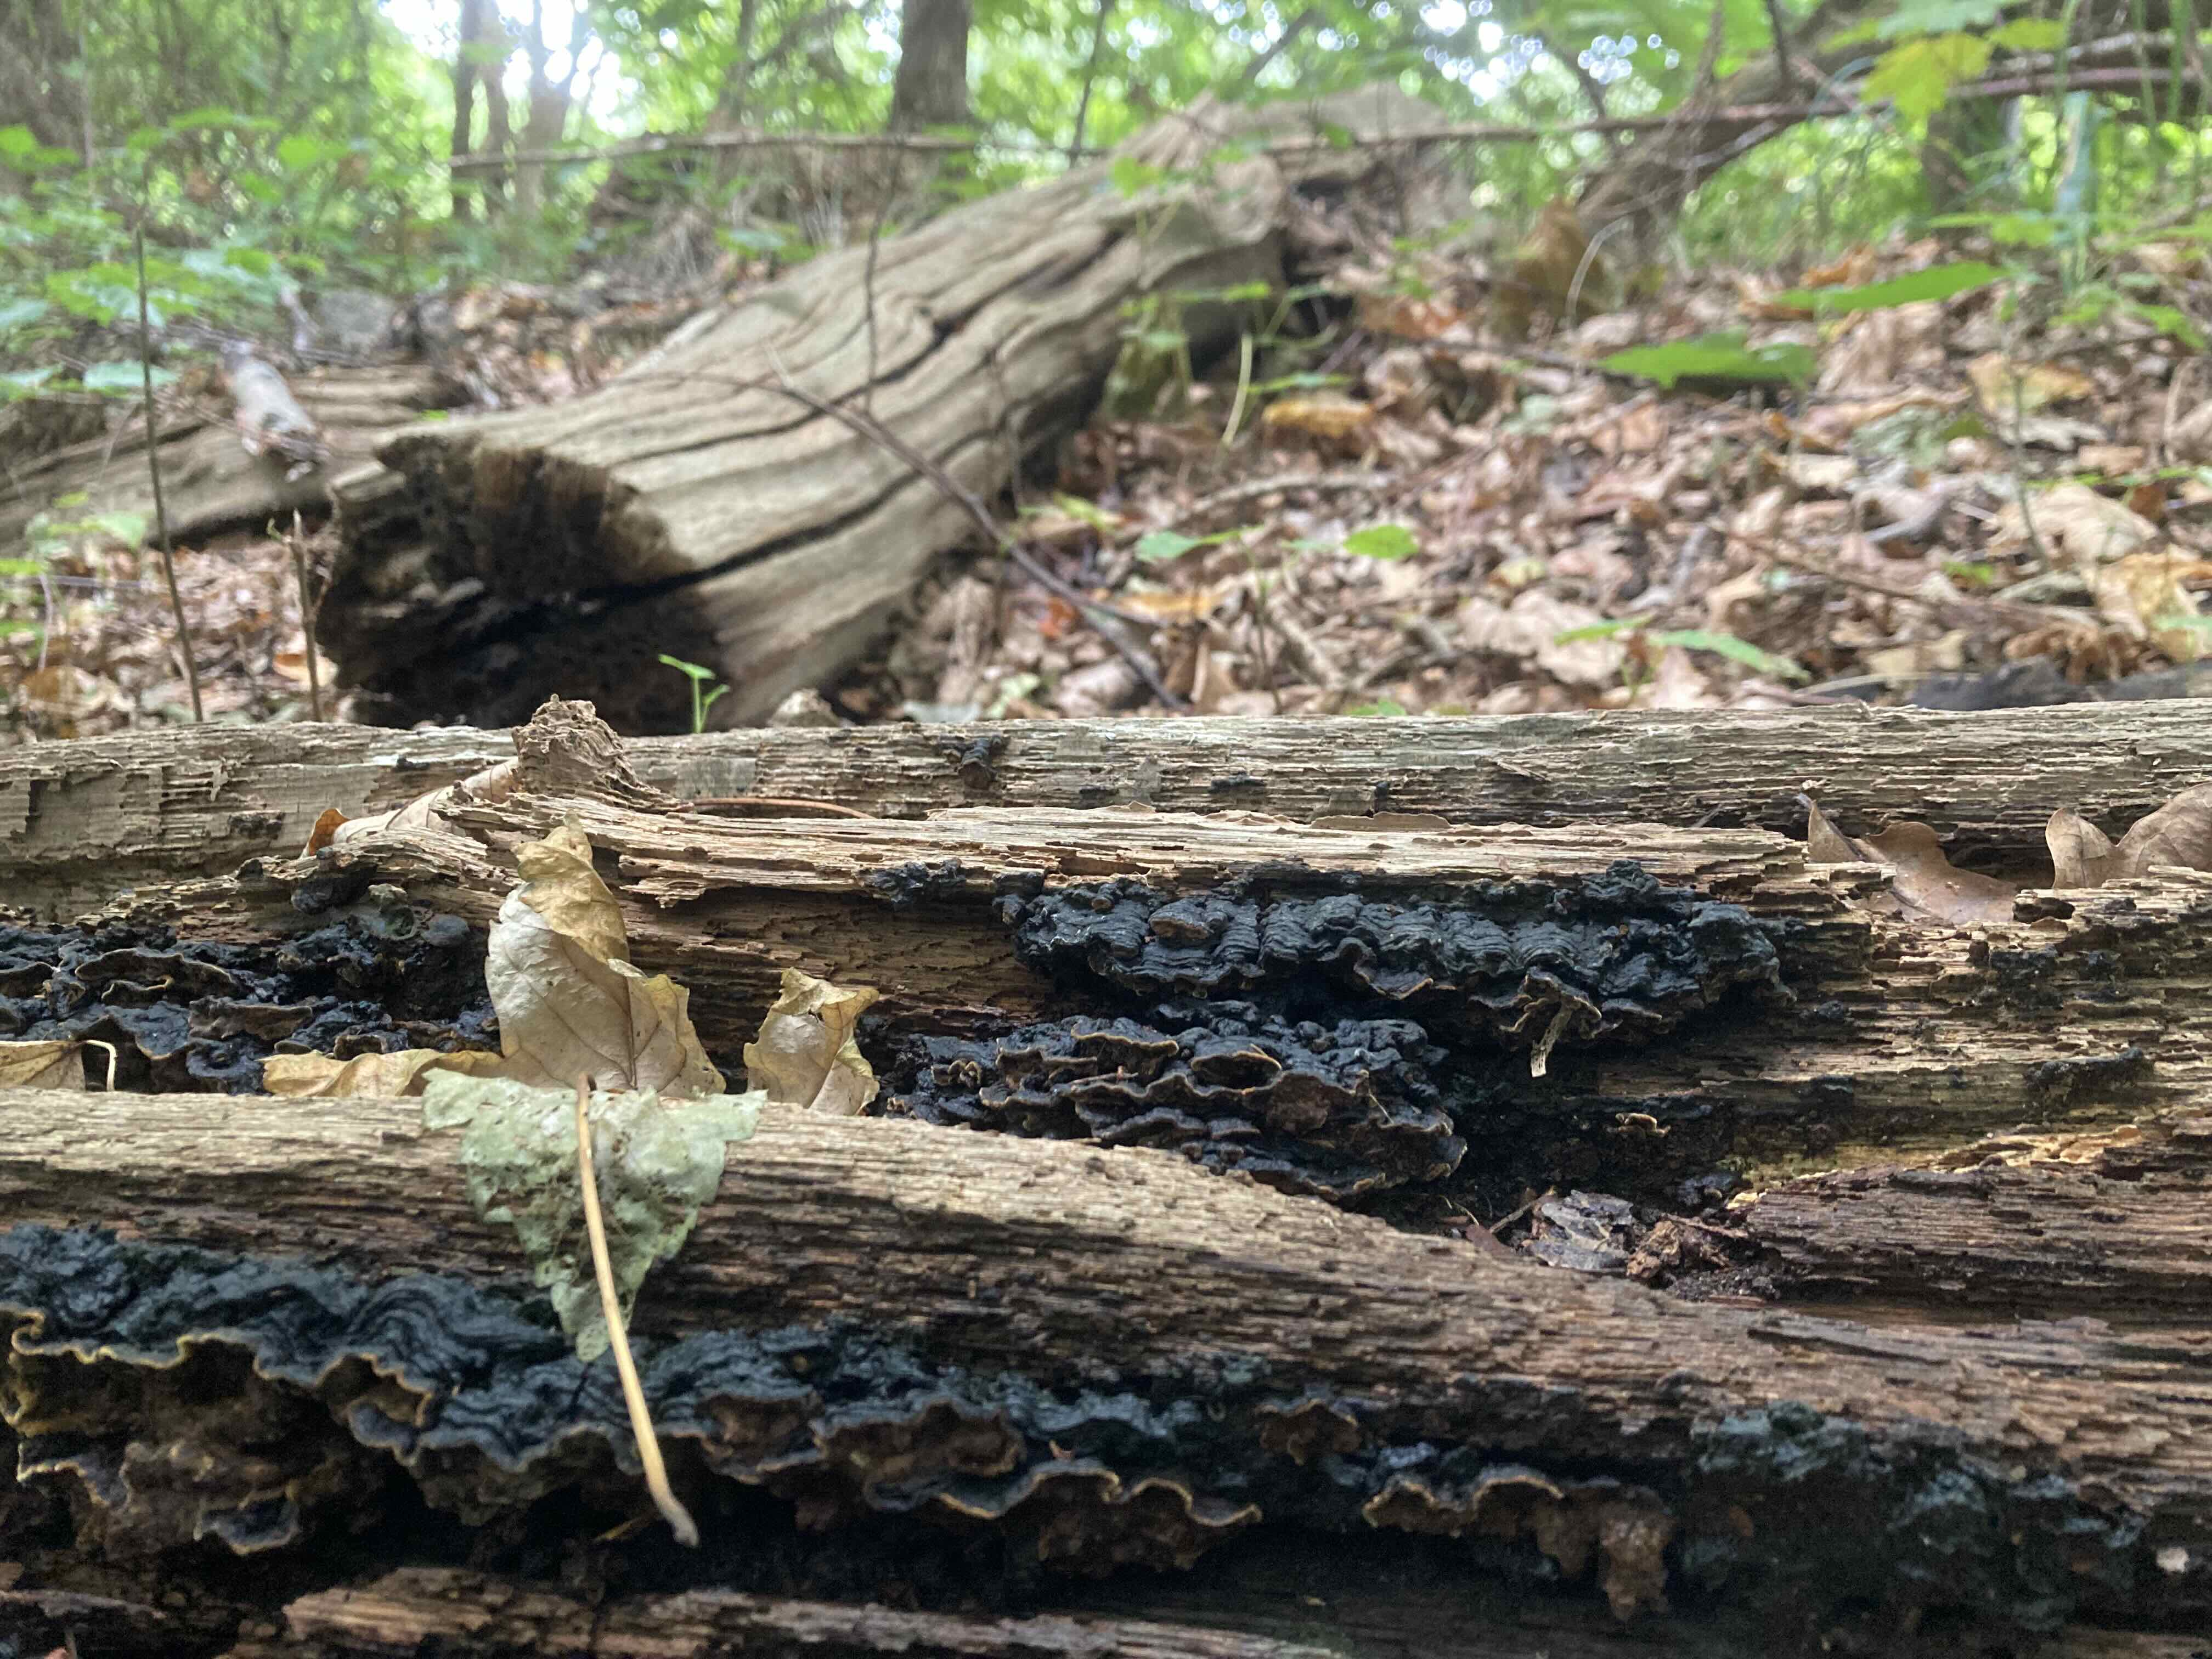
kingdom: Fungi
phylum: Basidiomycota
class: Agaricomycetes
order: Hymenochaetales
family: Hymenochaetaceae
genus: Hymenochaete
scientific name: Hymenochaete rubiginosa
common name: stiv ruslædersvamp
